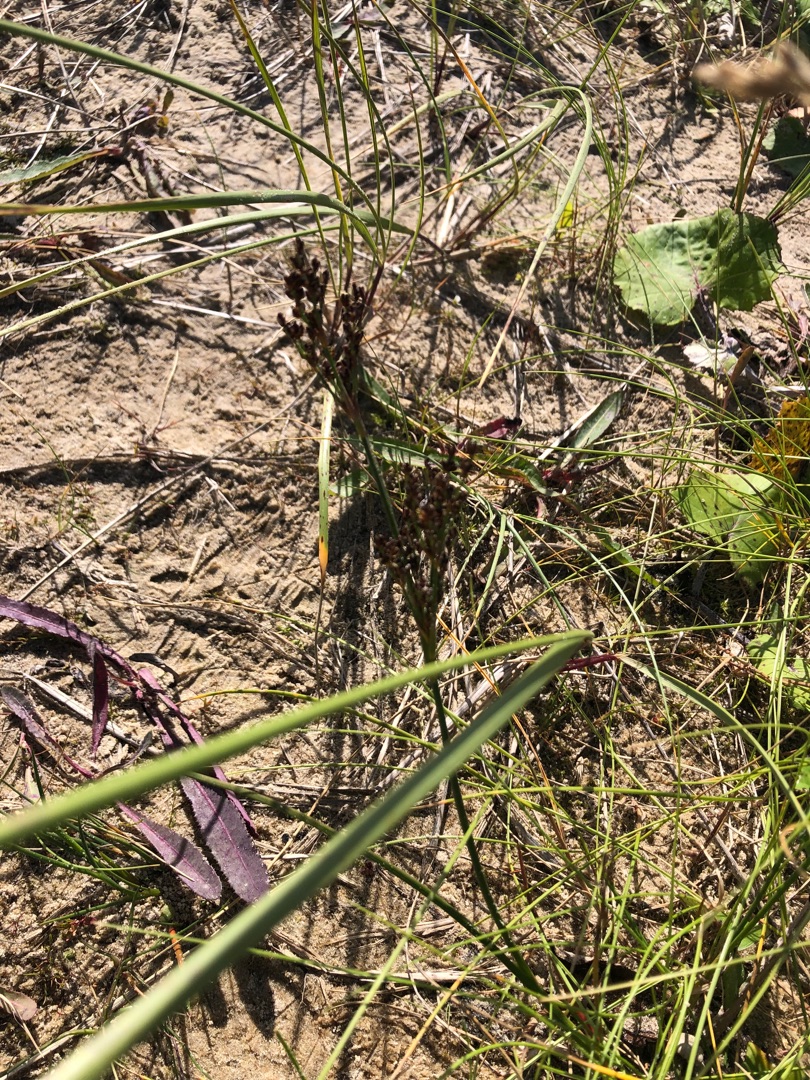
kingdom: Plantae
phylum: Tracheophyta
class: Liliopsida
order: Poales
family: Juncaceae
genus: Juncus
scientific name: Juncus anceps
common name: Sand-siv
